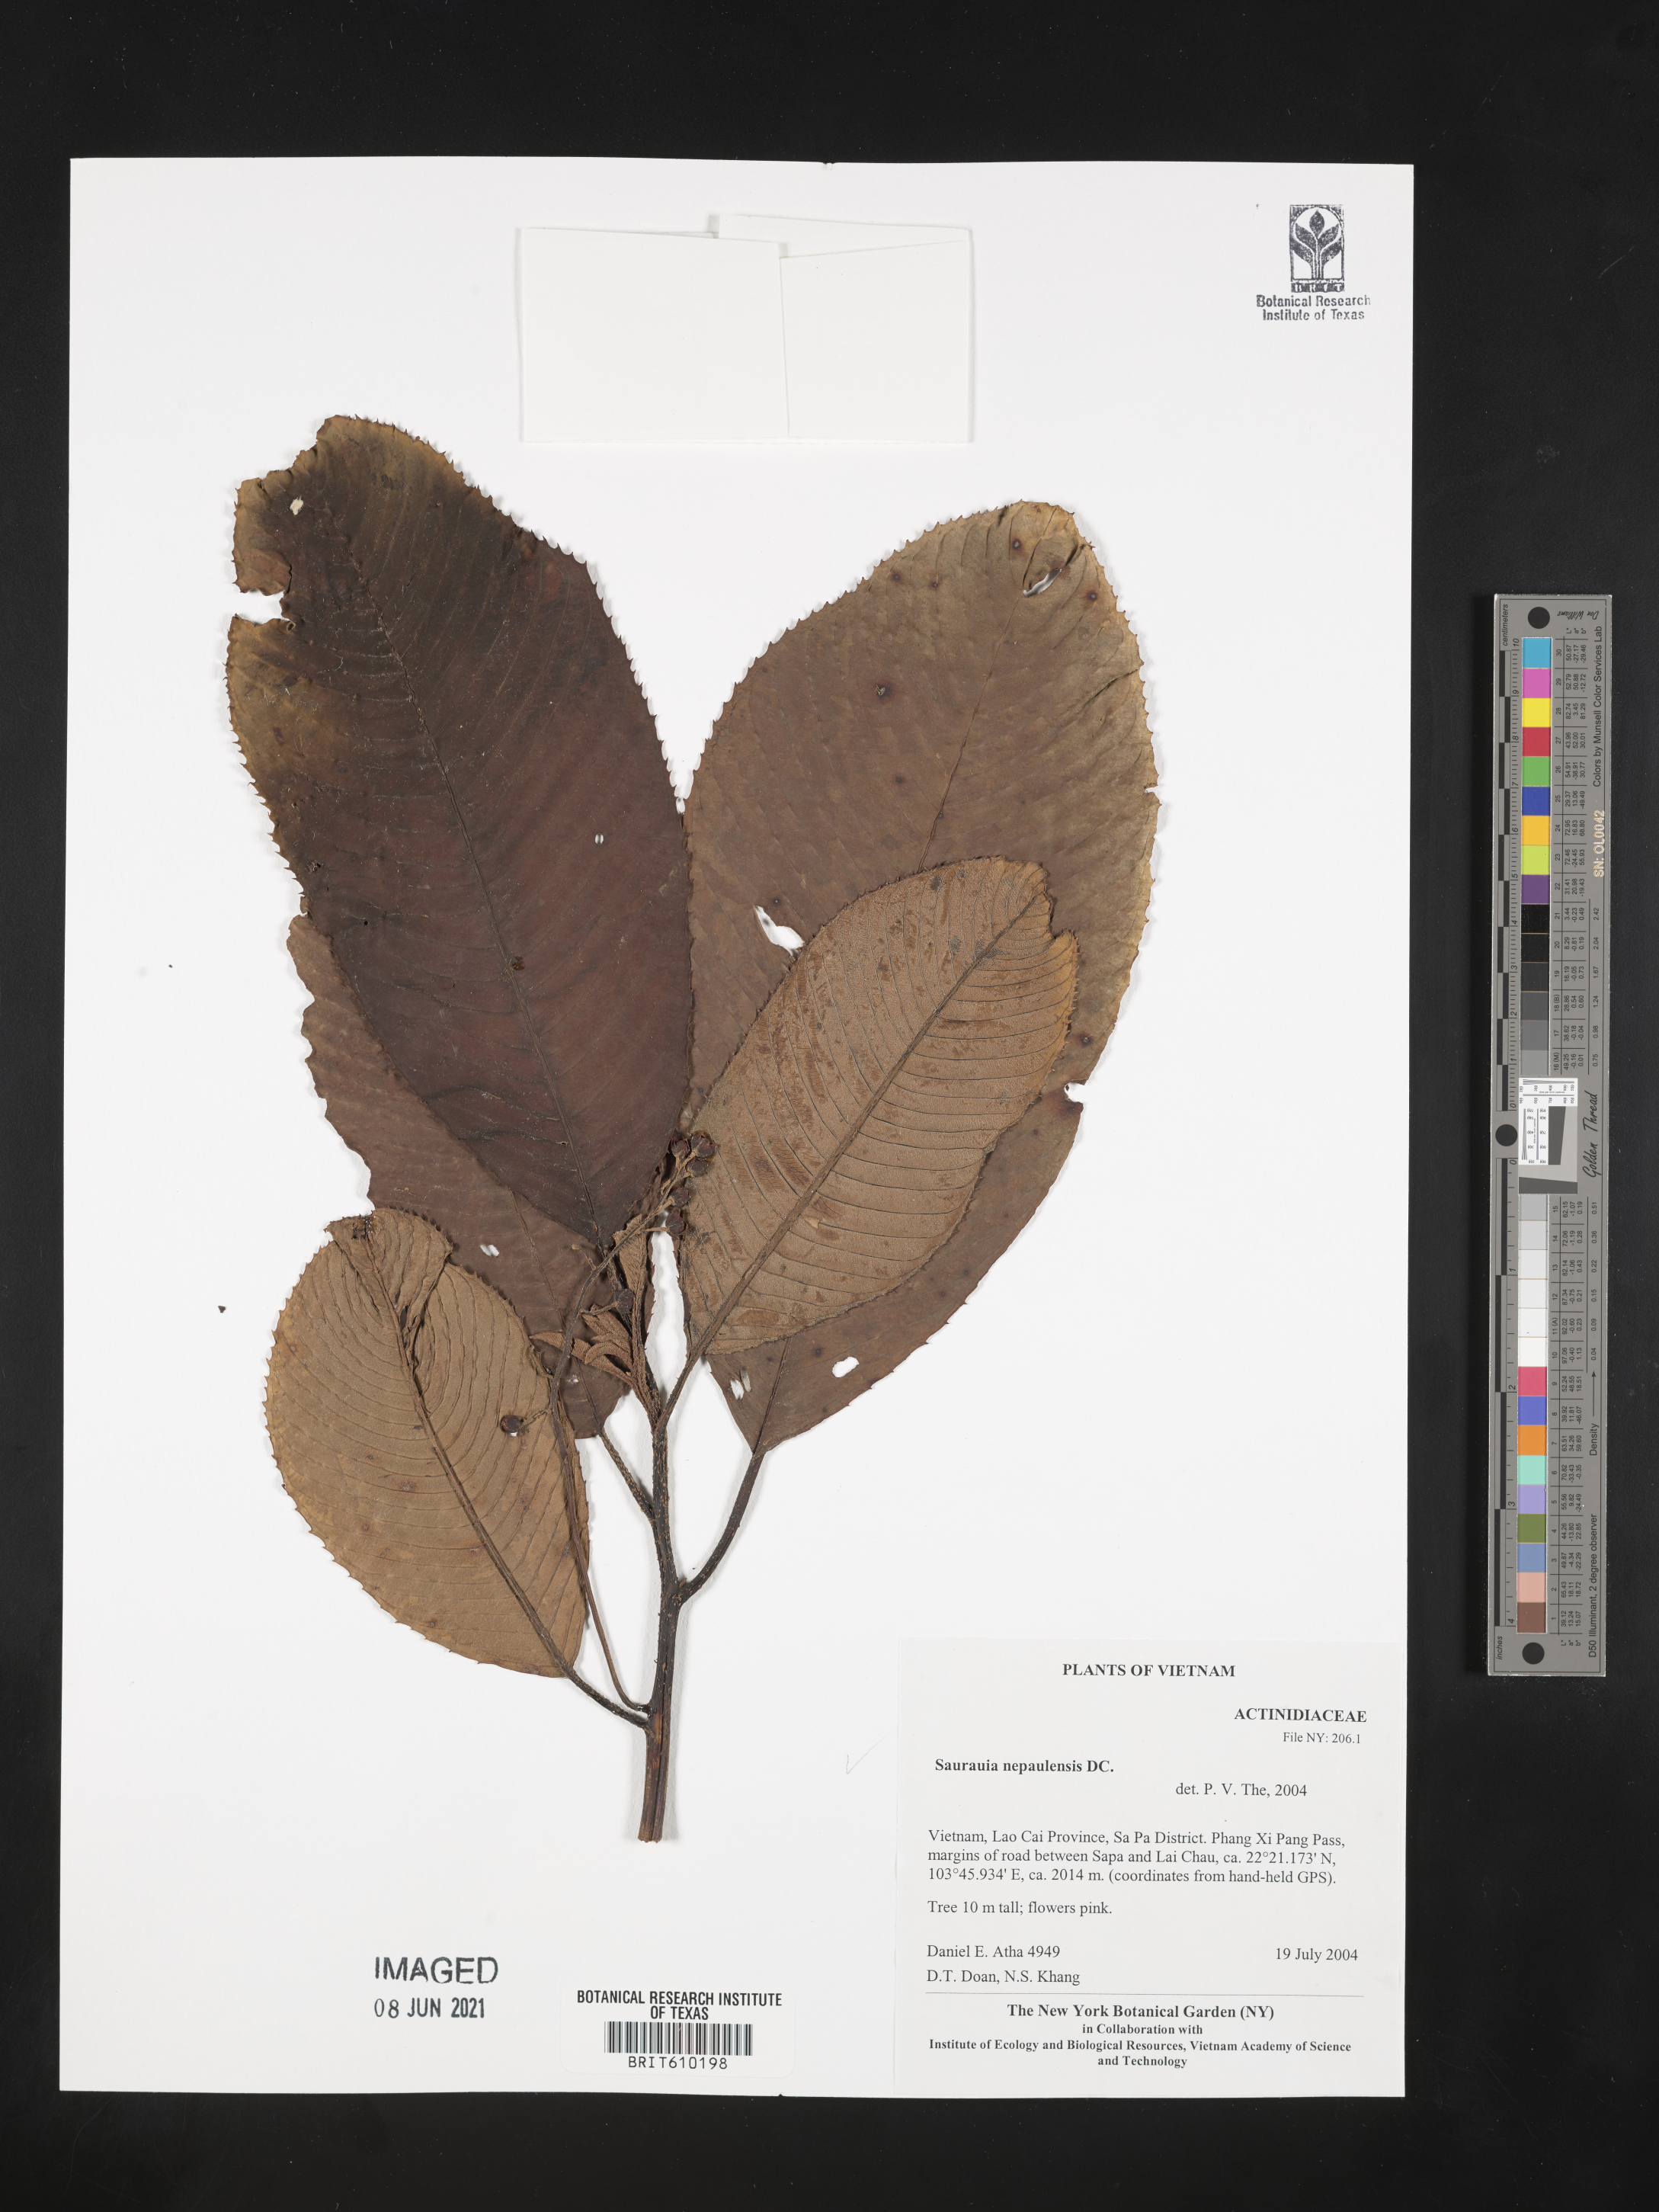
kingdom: Plantae
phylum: Tracheophyta
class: Magnoliopsida
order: Ericales
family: Actinidiaceae
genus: Saurauia
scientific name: Saurauia napaulensis
